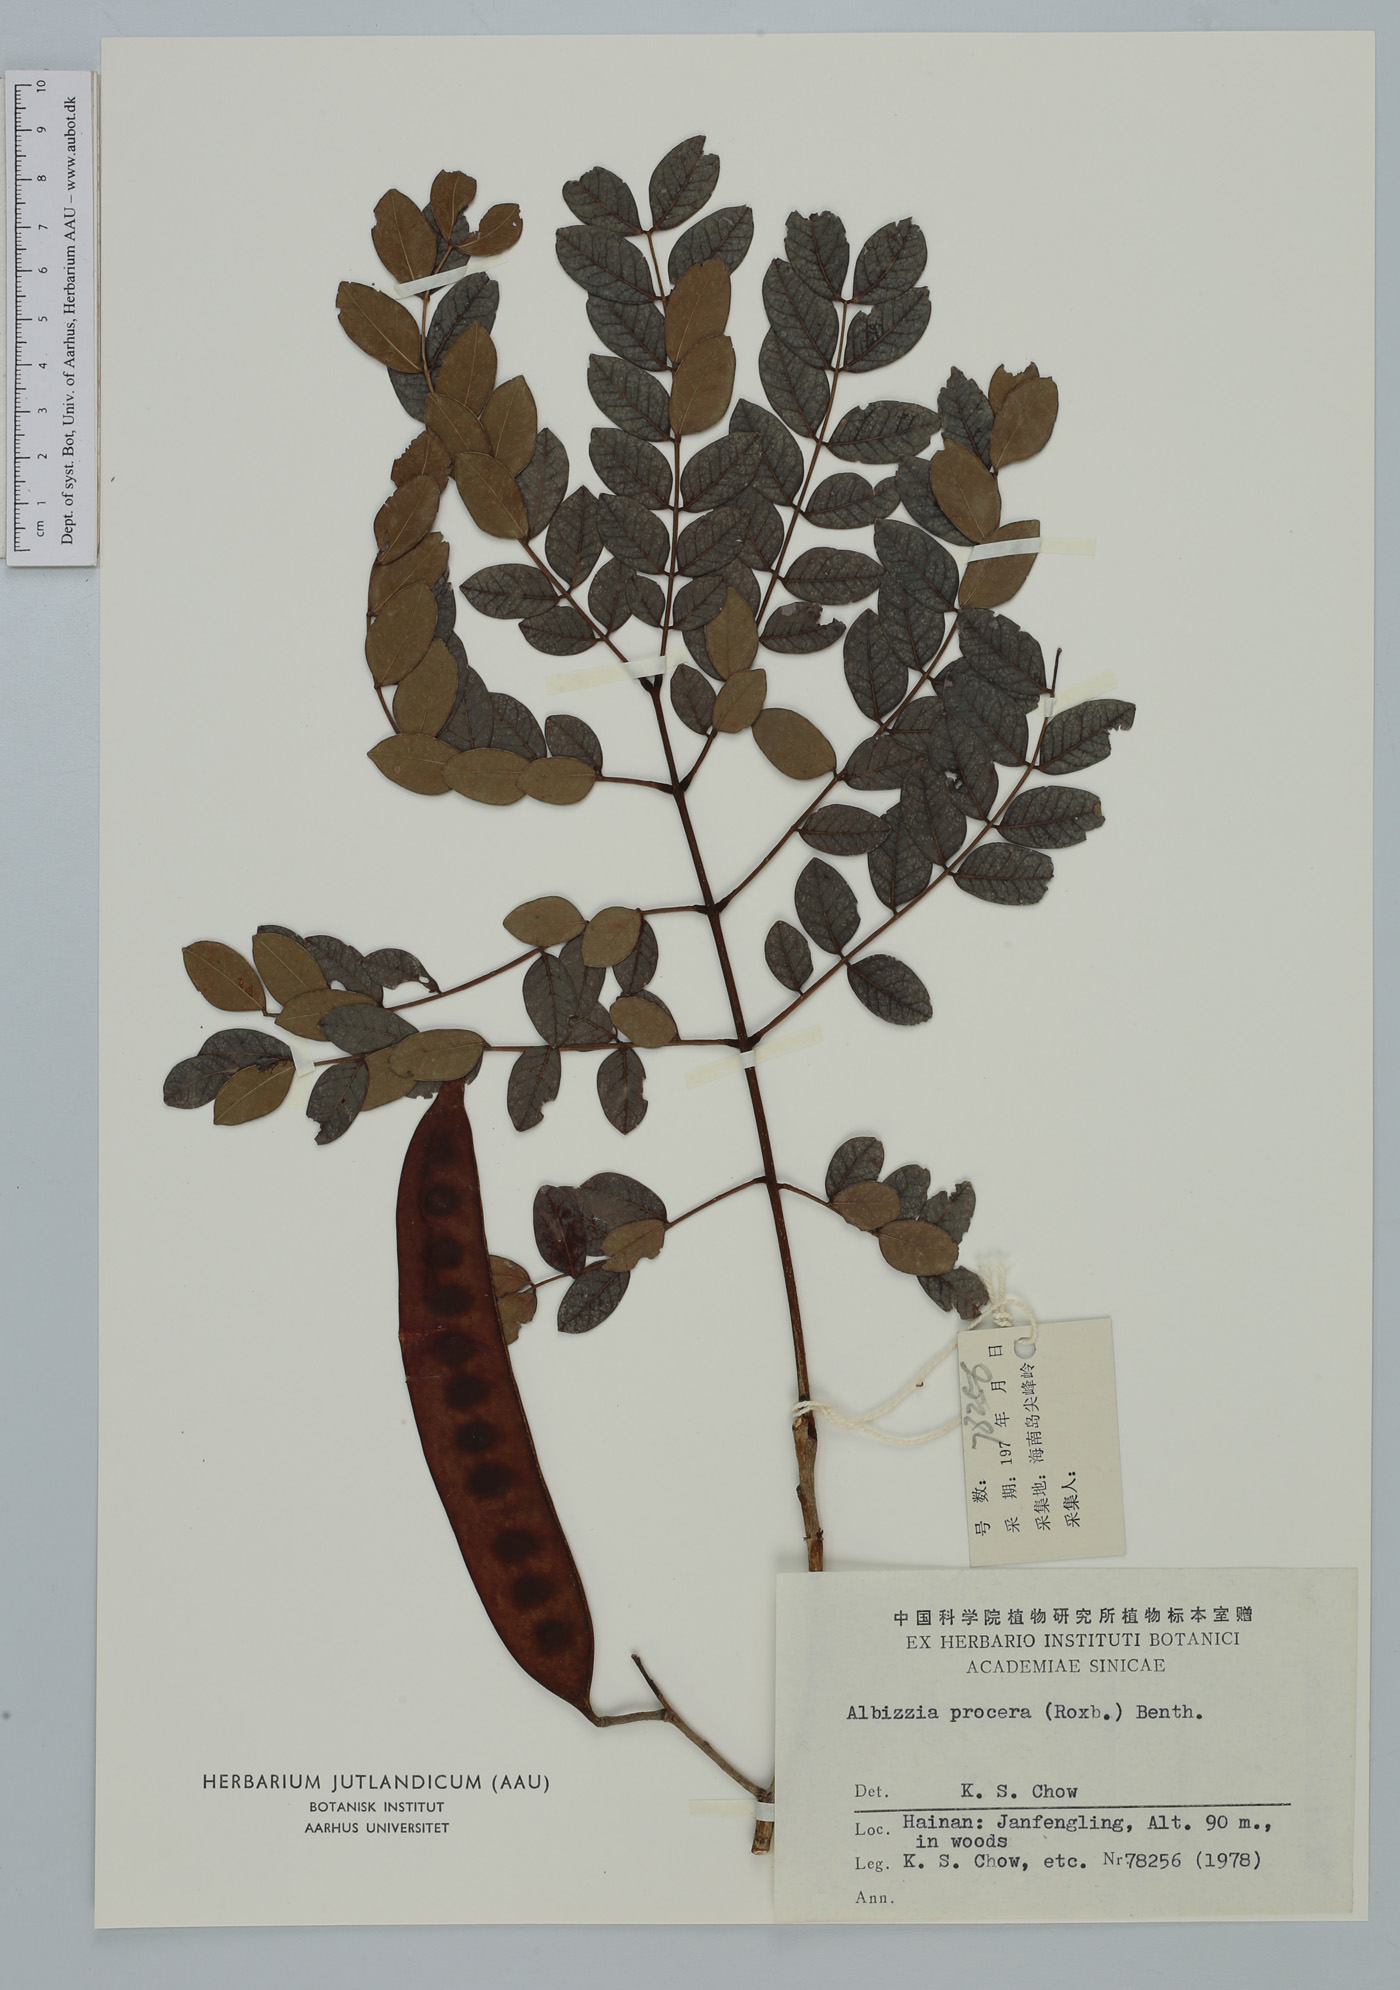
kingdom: Plantae
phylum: Tracheophyta
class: Magnoliopsida
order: Fabales
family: Fabaceae
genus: Albizia
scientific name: Albizia procera
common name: Tall albizia
